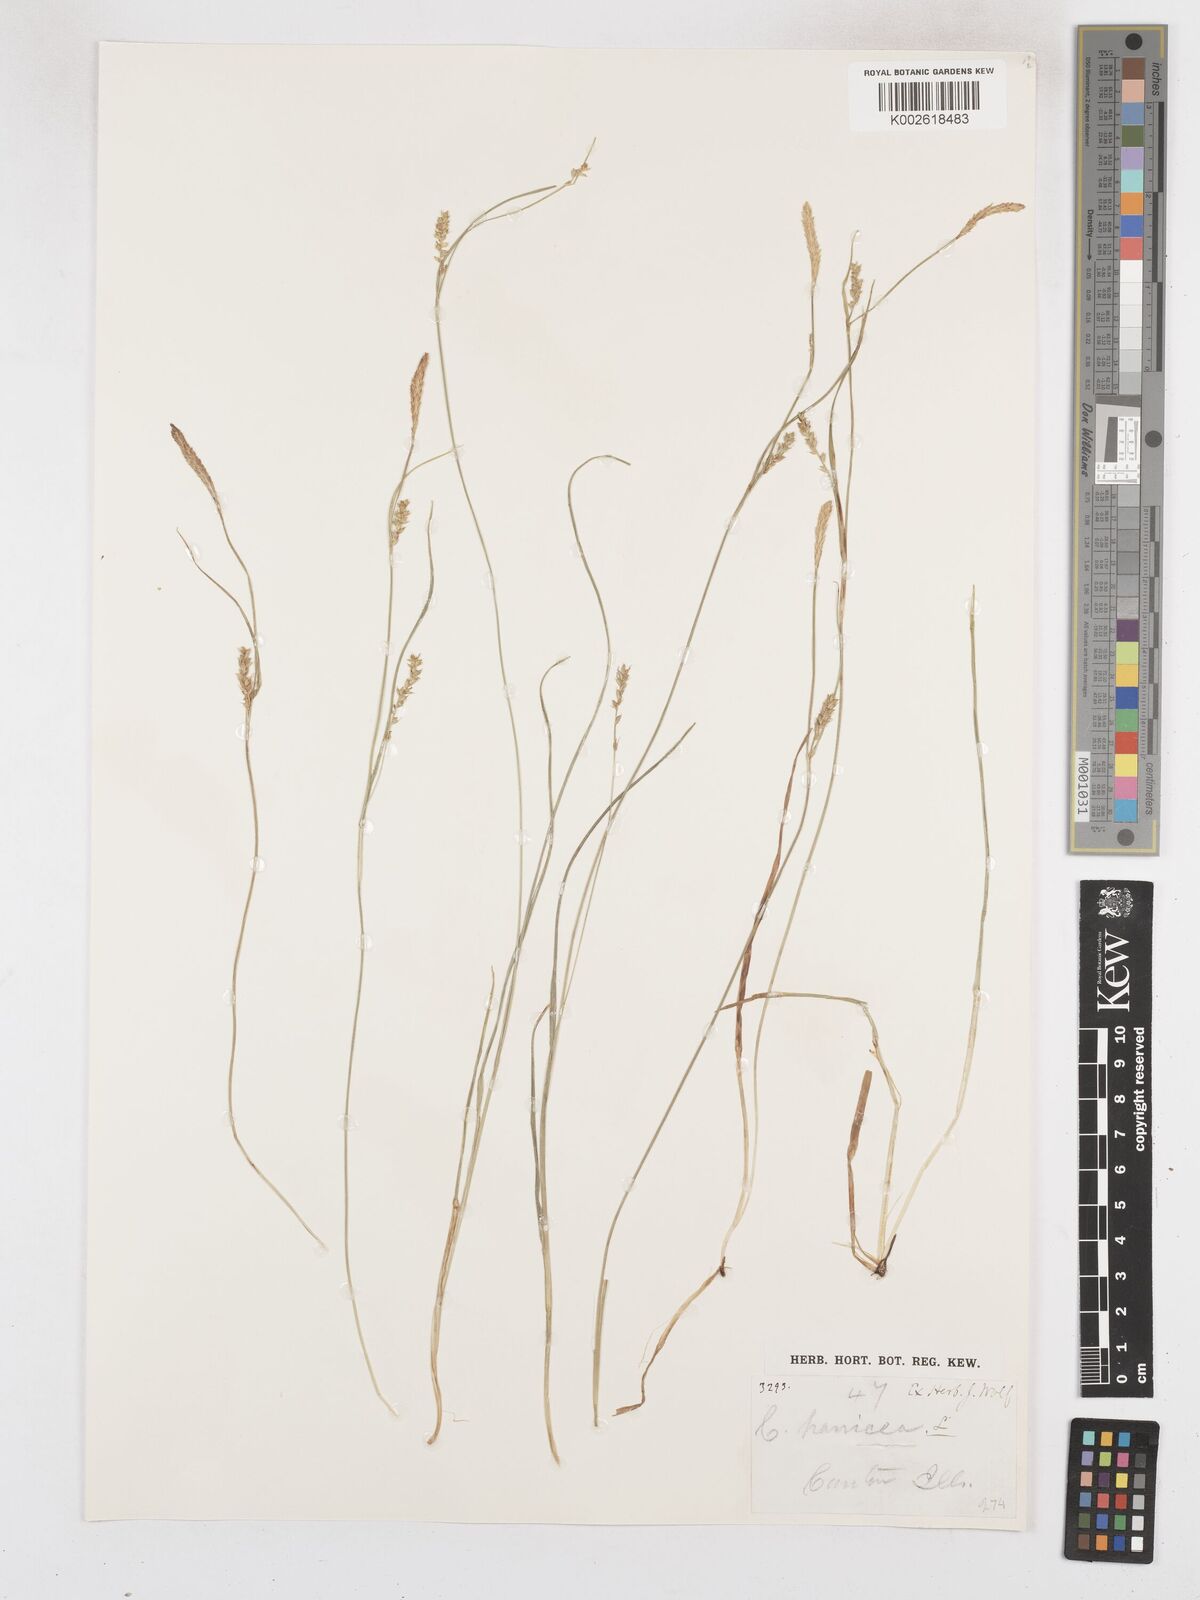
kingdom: Plantae
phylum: Tracheophyta
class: Liliopsida
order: Poales
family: Cyperaceae
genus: Carex
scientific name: Carex panicea
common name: Carnation sedge
